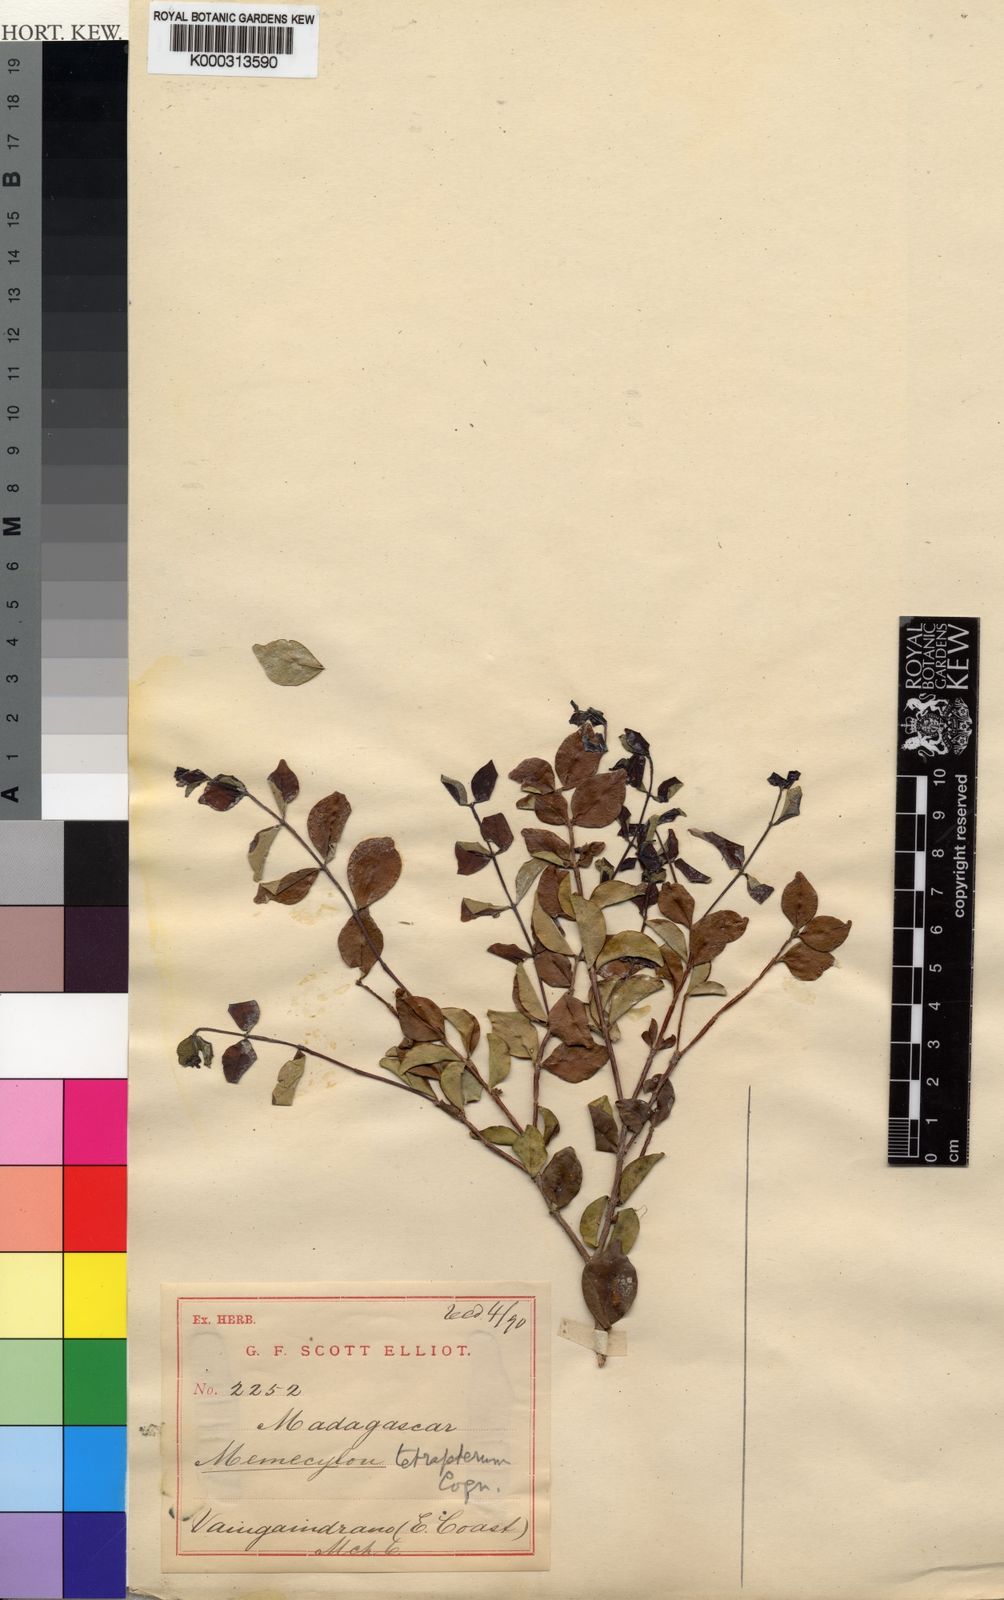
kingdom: Plantae
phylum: Tracheophyta
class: Magnoliopsida
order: Myrtales
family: Melastomataceae
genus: Memecylon
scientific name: Memecylon
